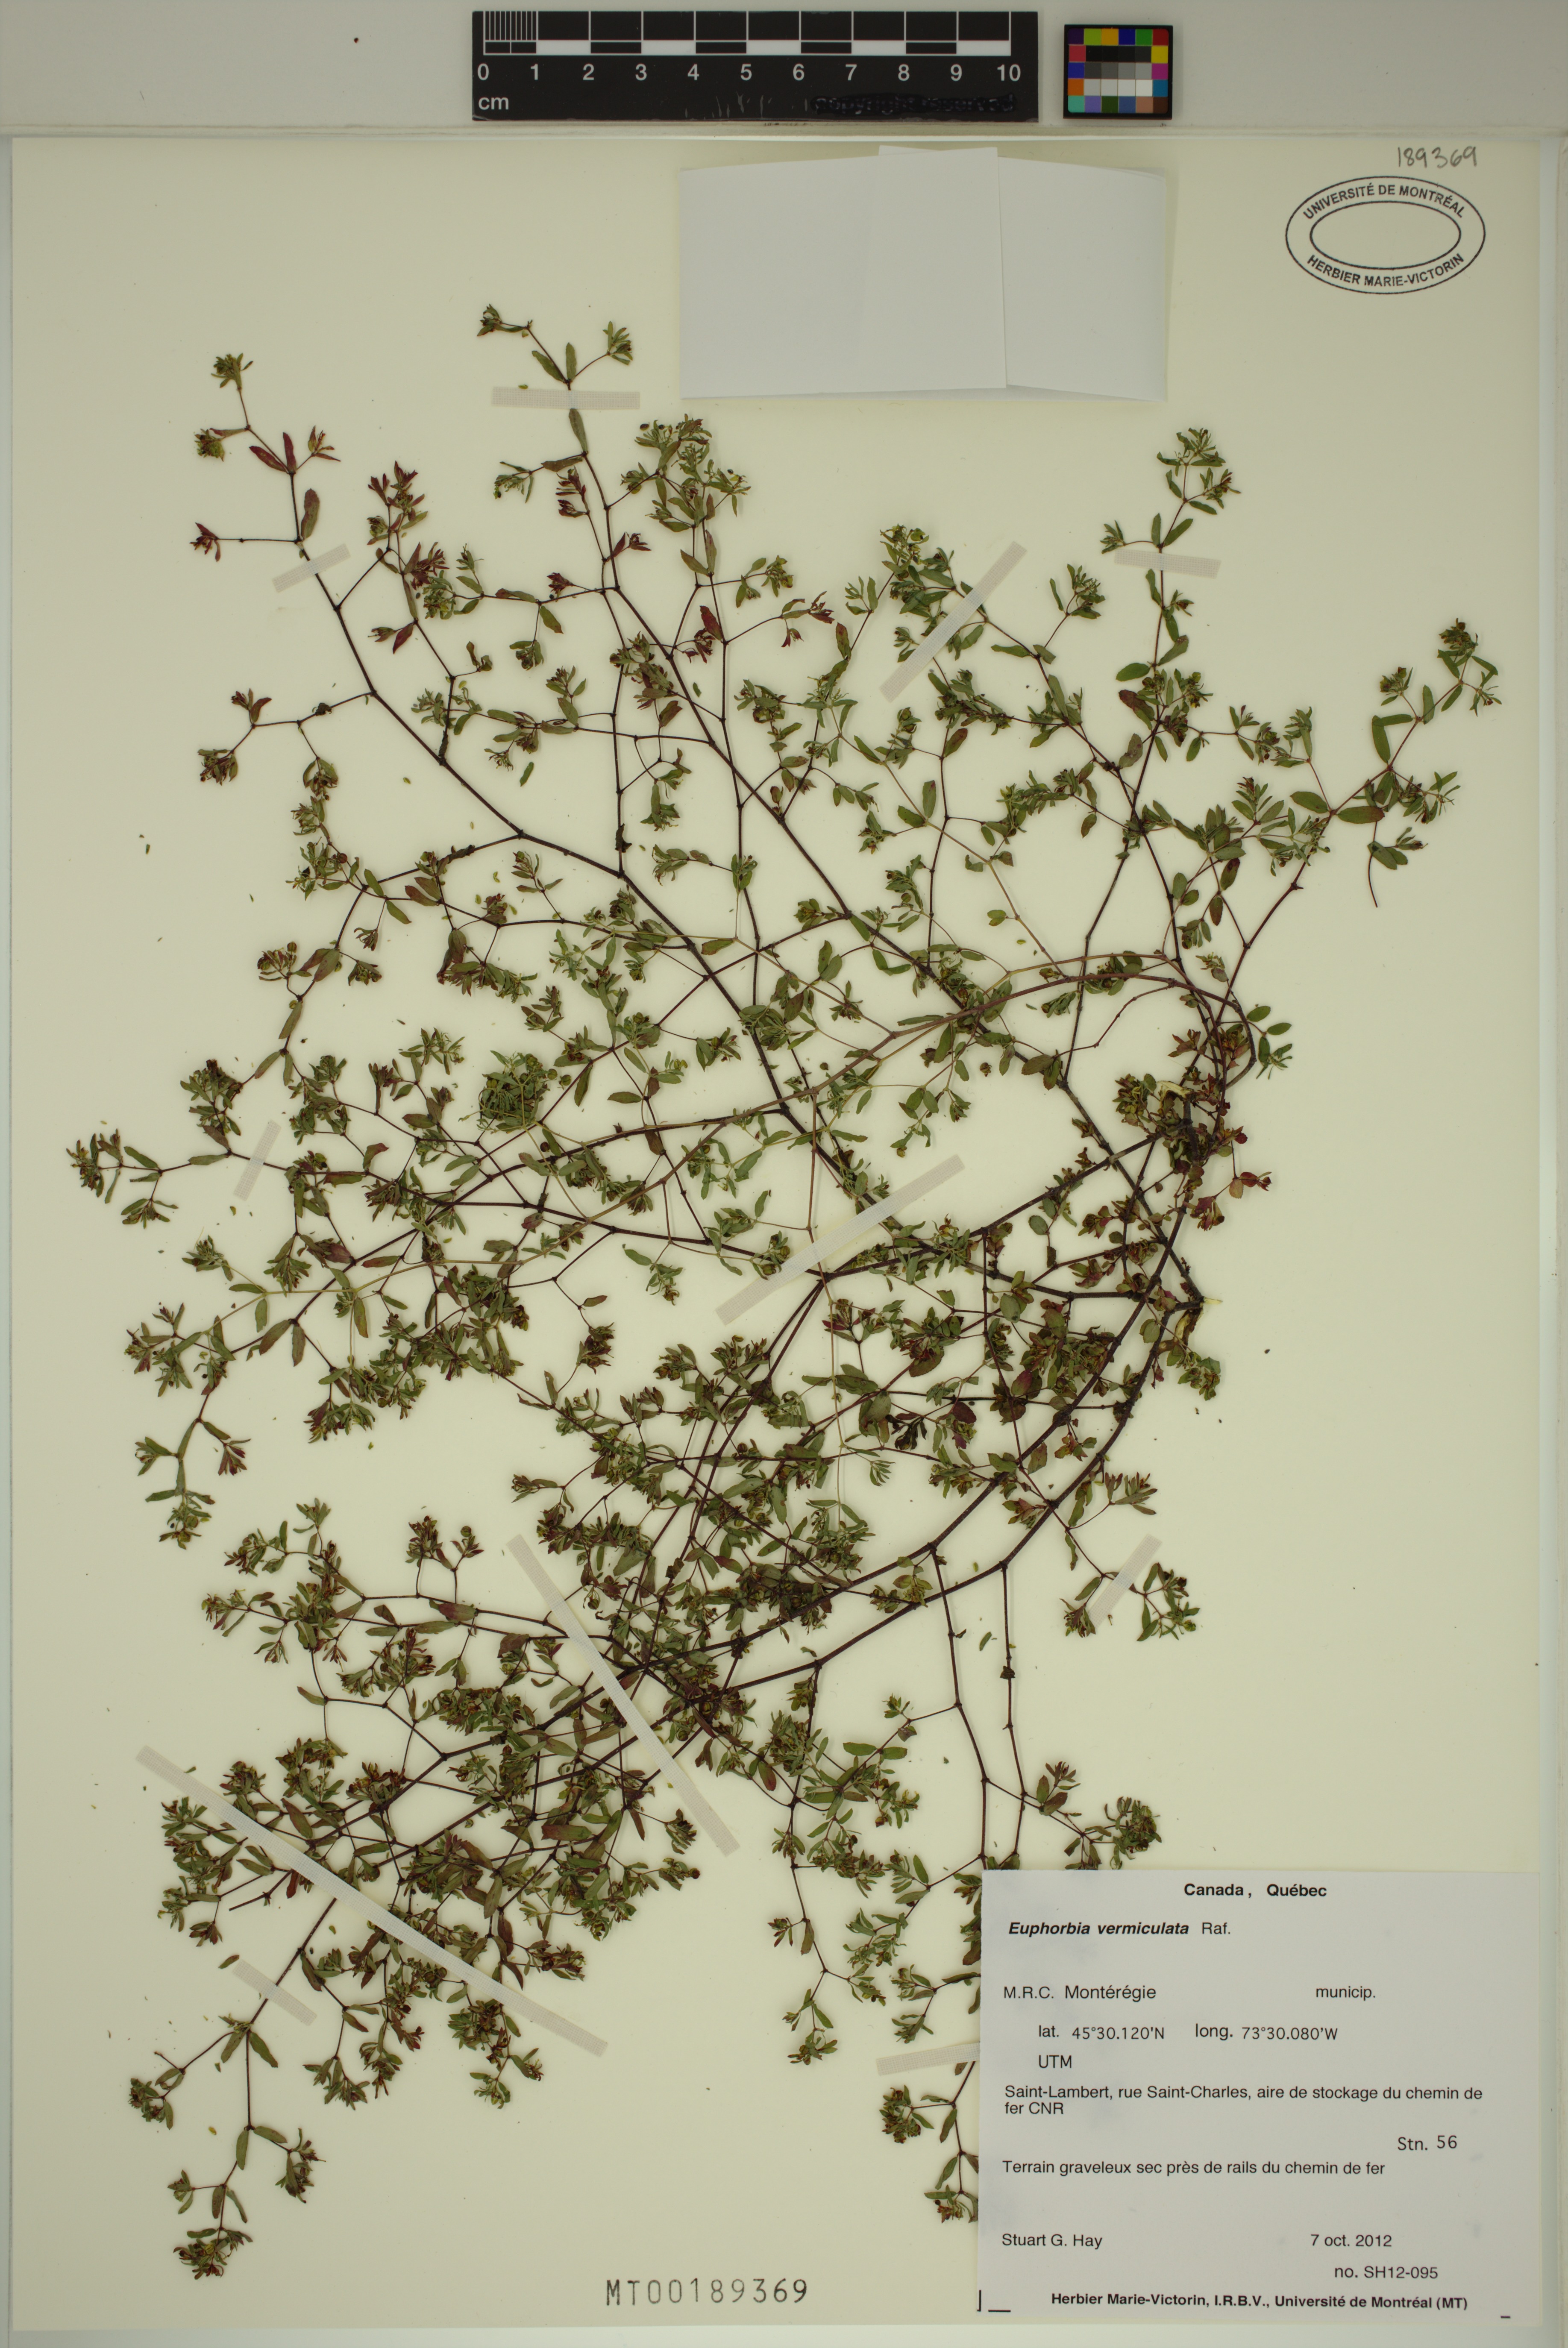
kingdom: Plantae
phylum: Tracheophyta
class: Magnoliopsida
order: Malpighiales
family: Euphorbiaceae
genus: Euphorbia
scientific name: Euphorbia vermiculata
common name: Hairy spurge
